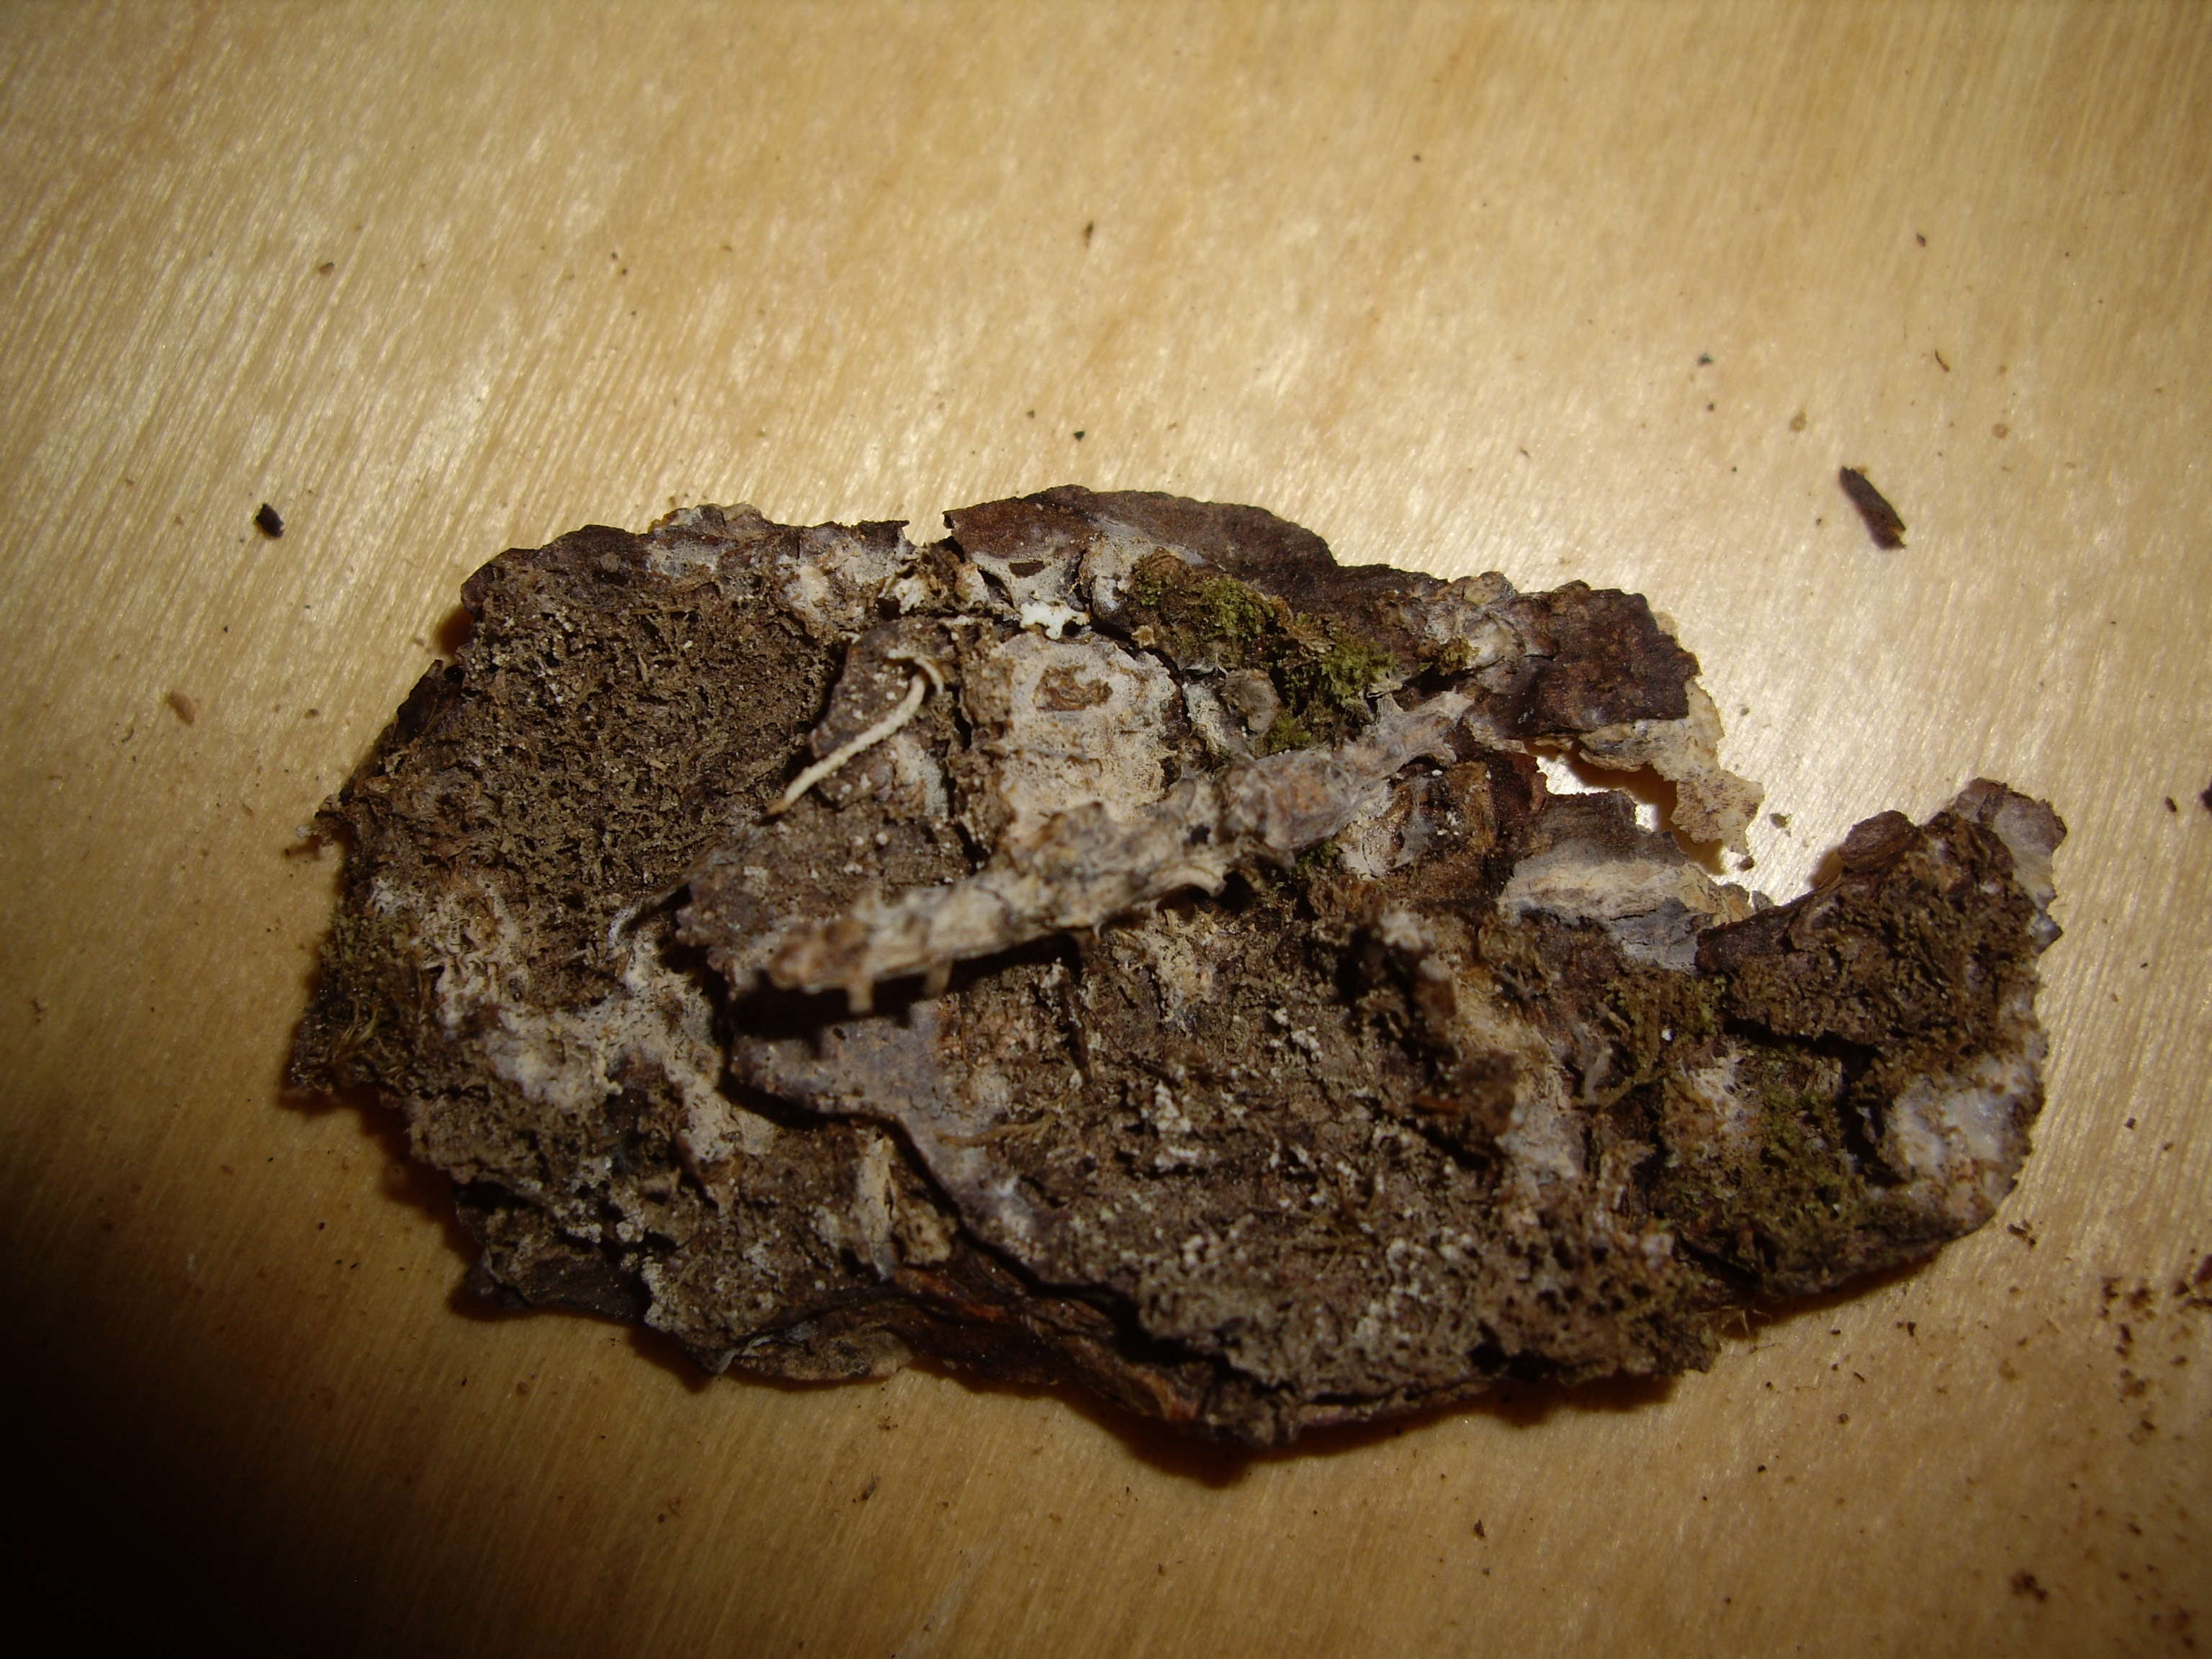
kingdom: Fungi
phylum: Basidiomycota
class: Agaricomycetes
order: Russulales
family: Xenasmataceae
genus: Xenasmatella
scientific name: Xenasmatella borealis
